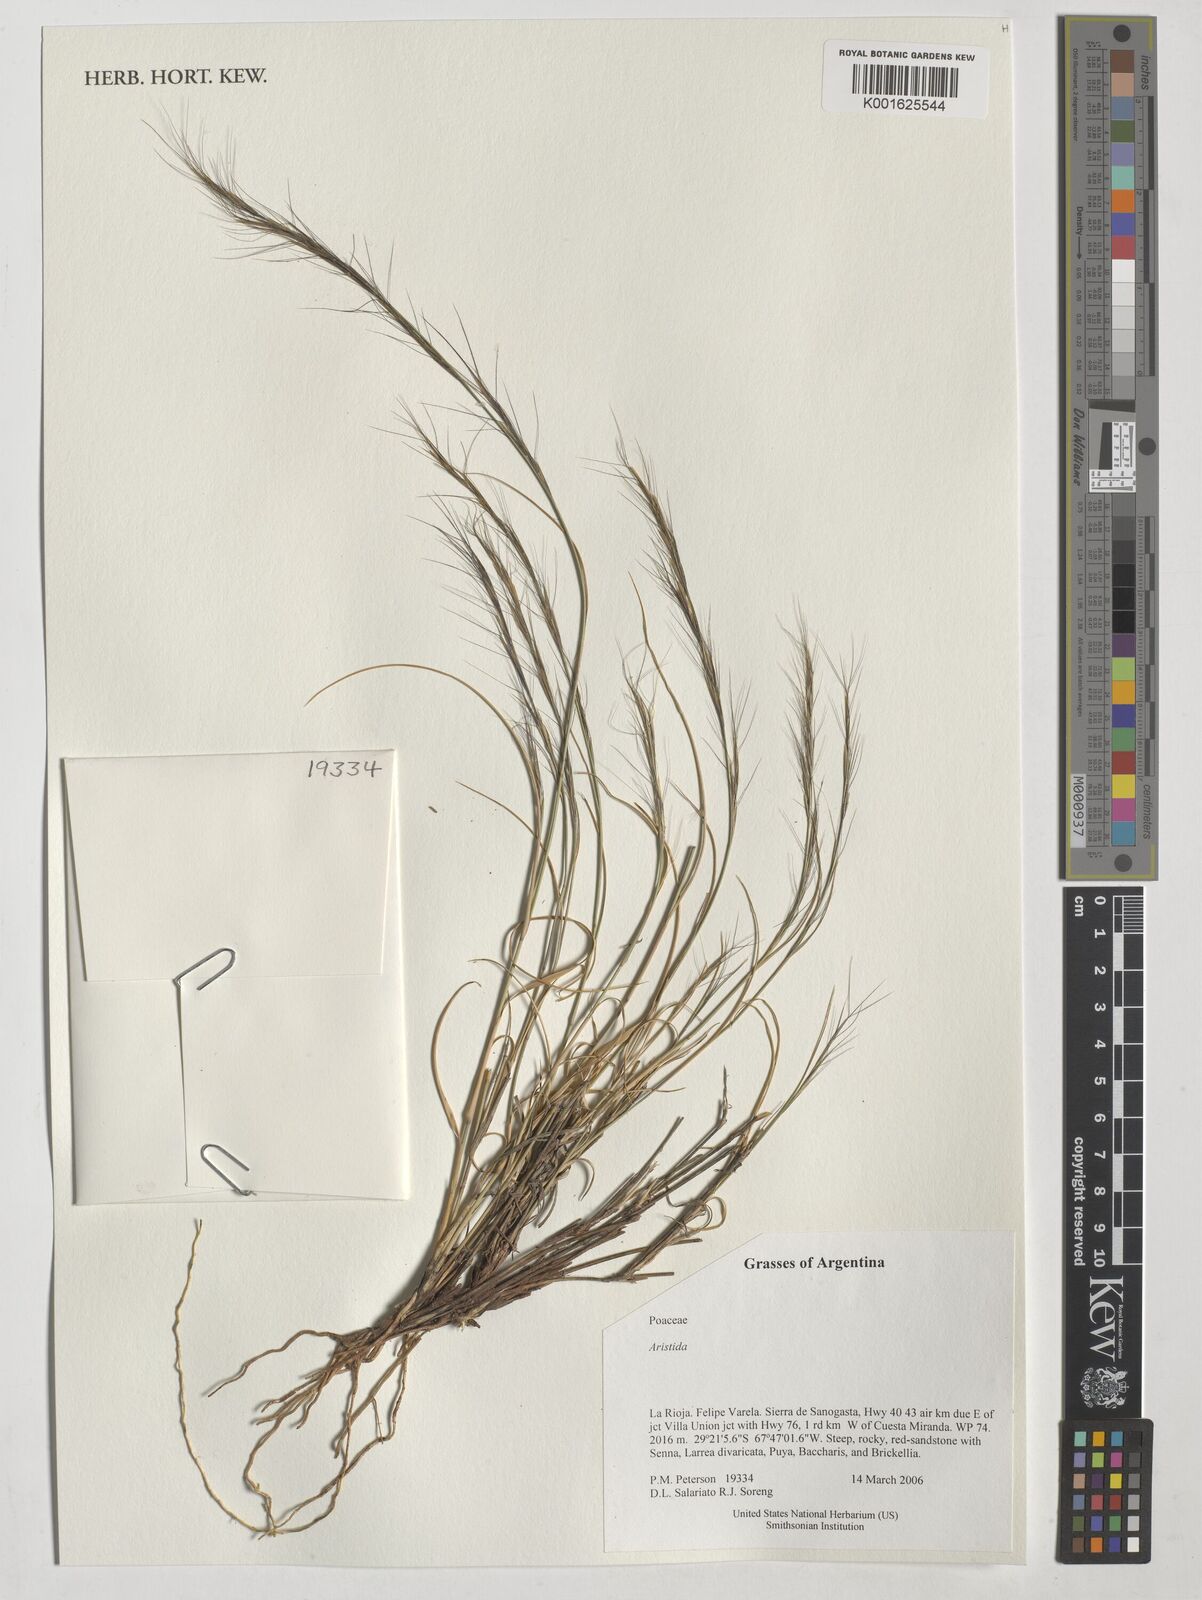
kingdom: Plantae
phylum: Tracheophyta
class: Liliopsida
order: Poales
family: Poaceae
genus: Aristida
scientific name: Aristida
